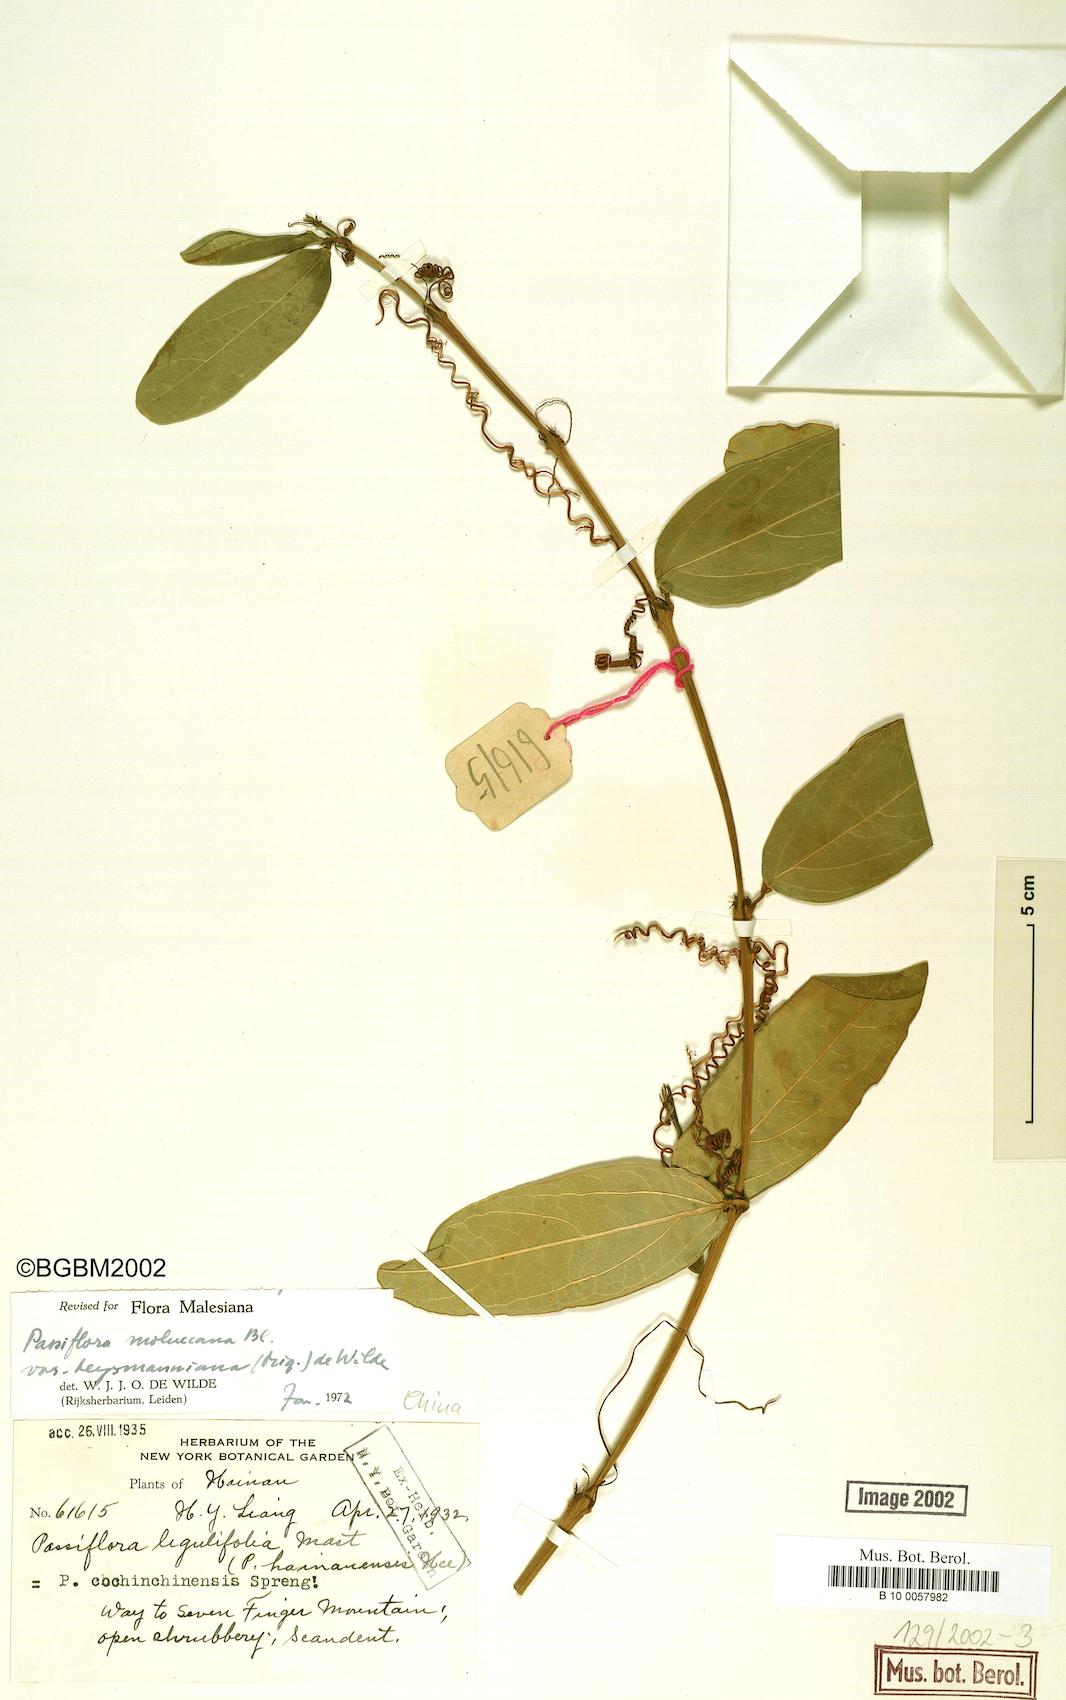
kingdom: Plantae
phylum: Tracheophyta
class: Magnoliopsida
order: Malpighiales
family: Passifloraceae
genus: Passiflora
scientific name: Passiflora moluccana
